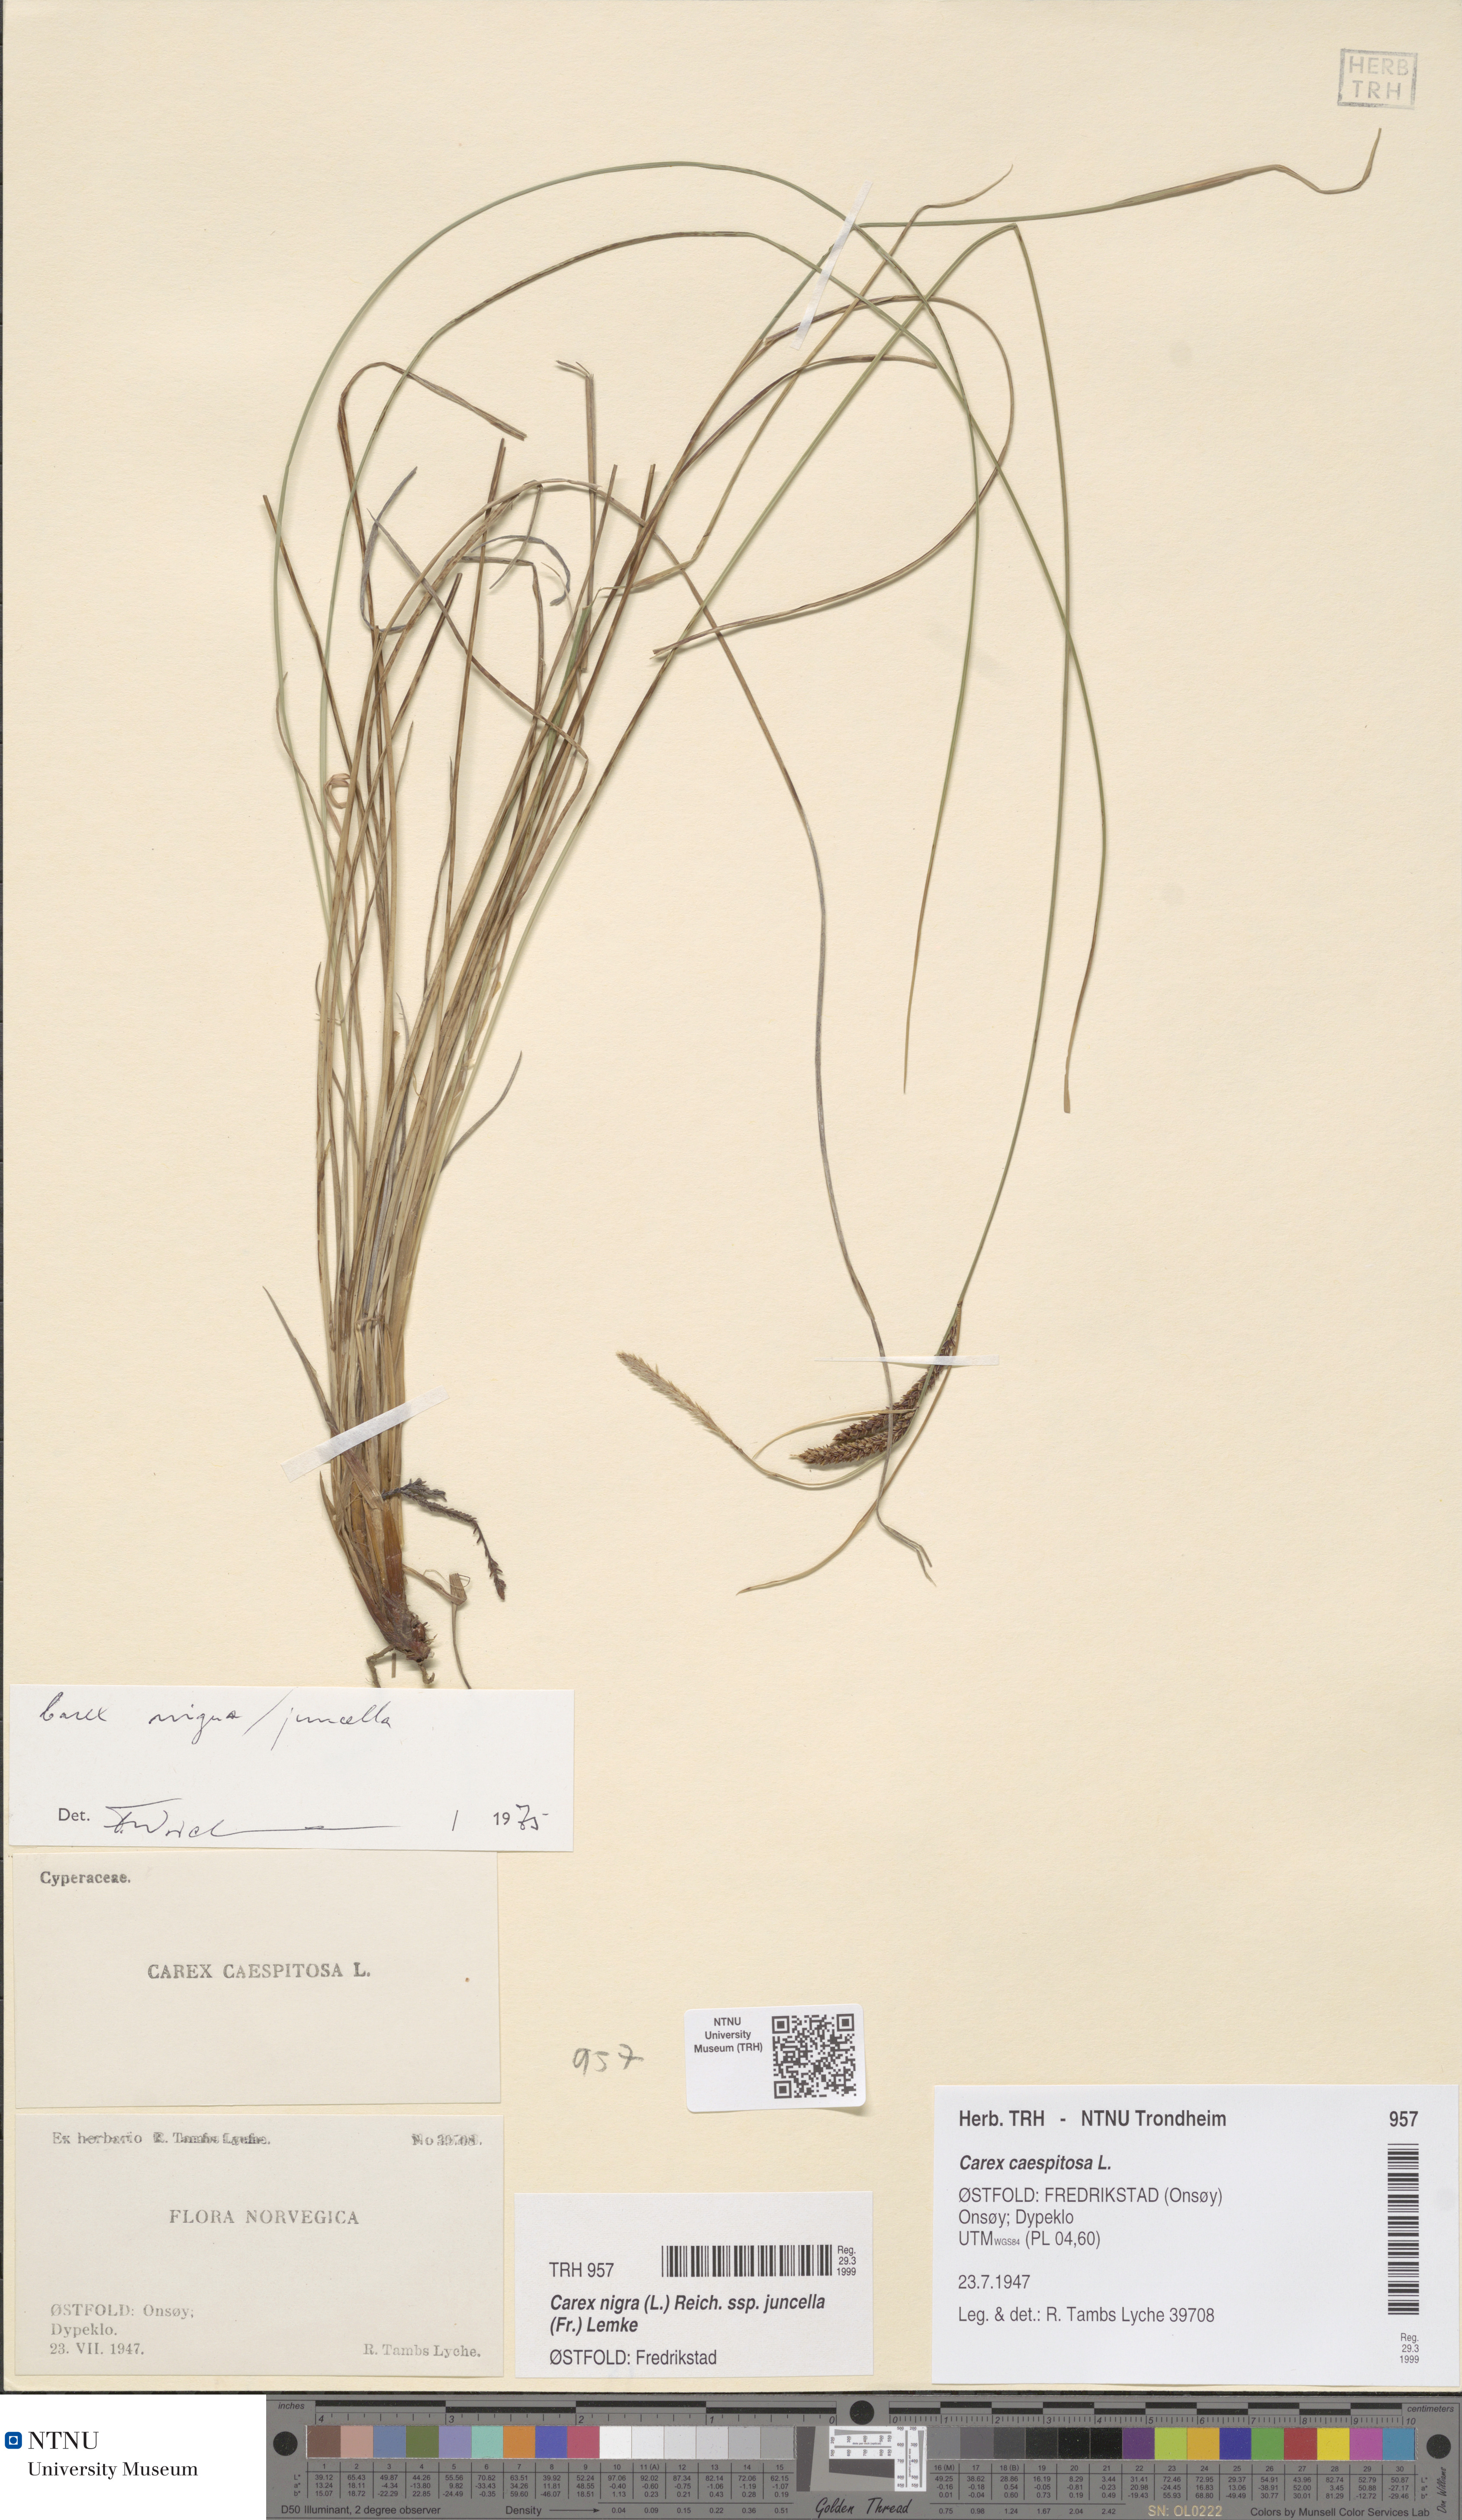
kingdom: Plantae
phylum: Tracheophyta
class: Liliopsida
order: Poales
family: Cyperaceae
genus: Carex
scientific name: Carex nigra
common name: Common sedge
